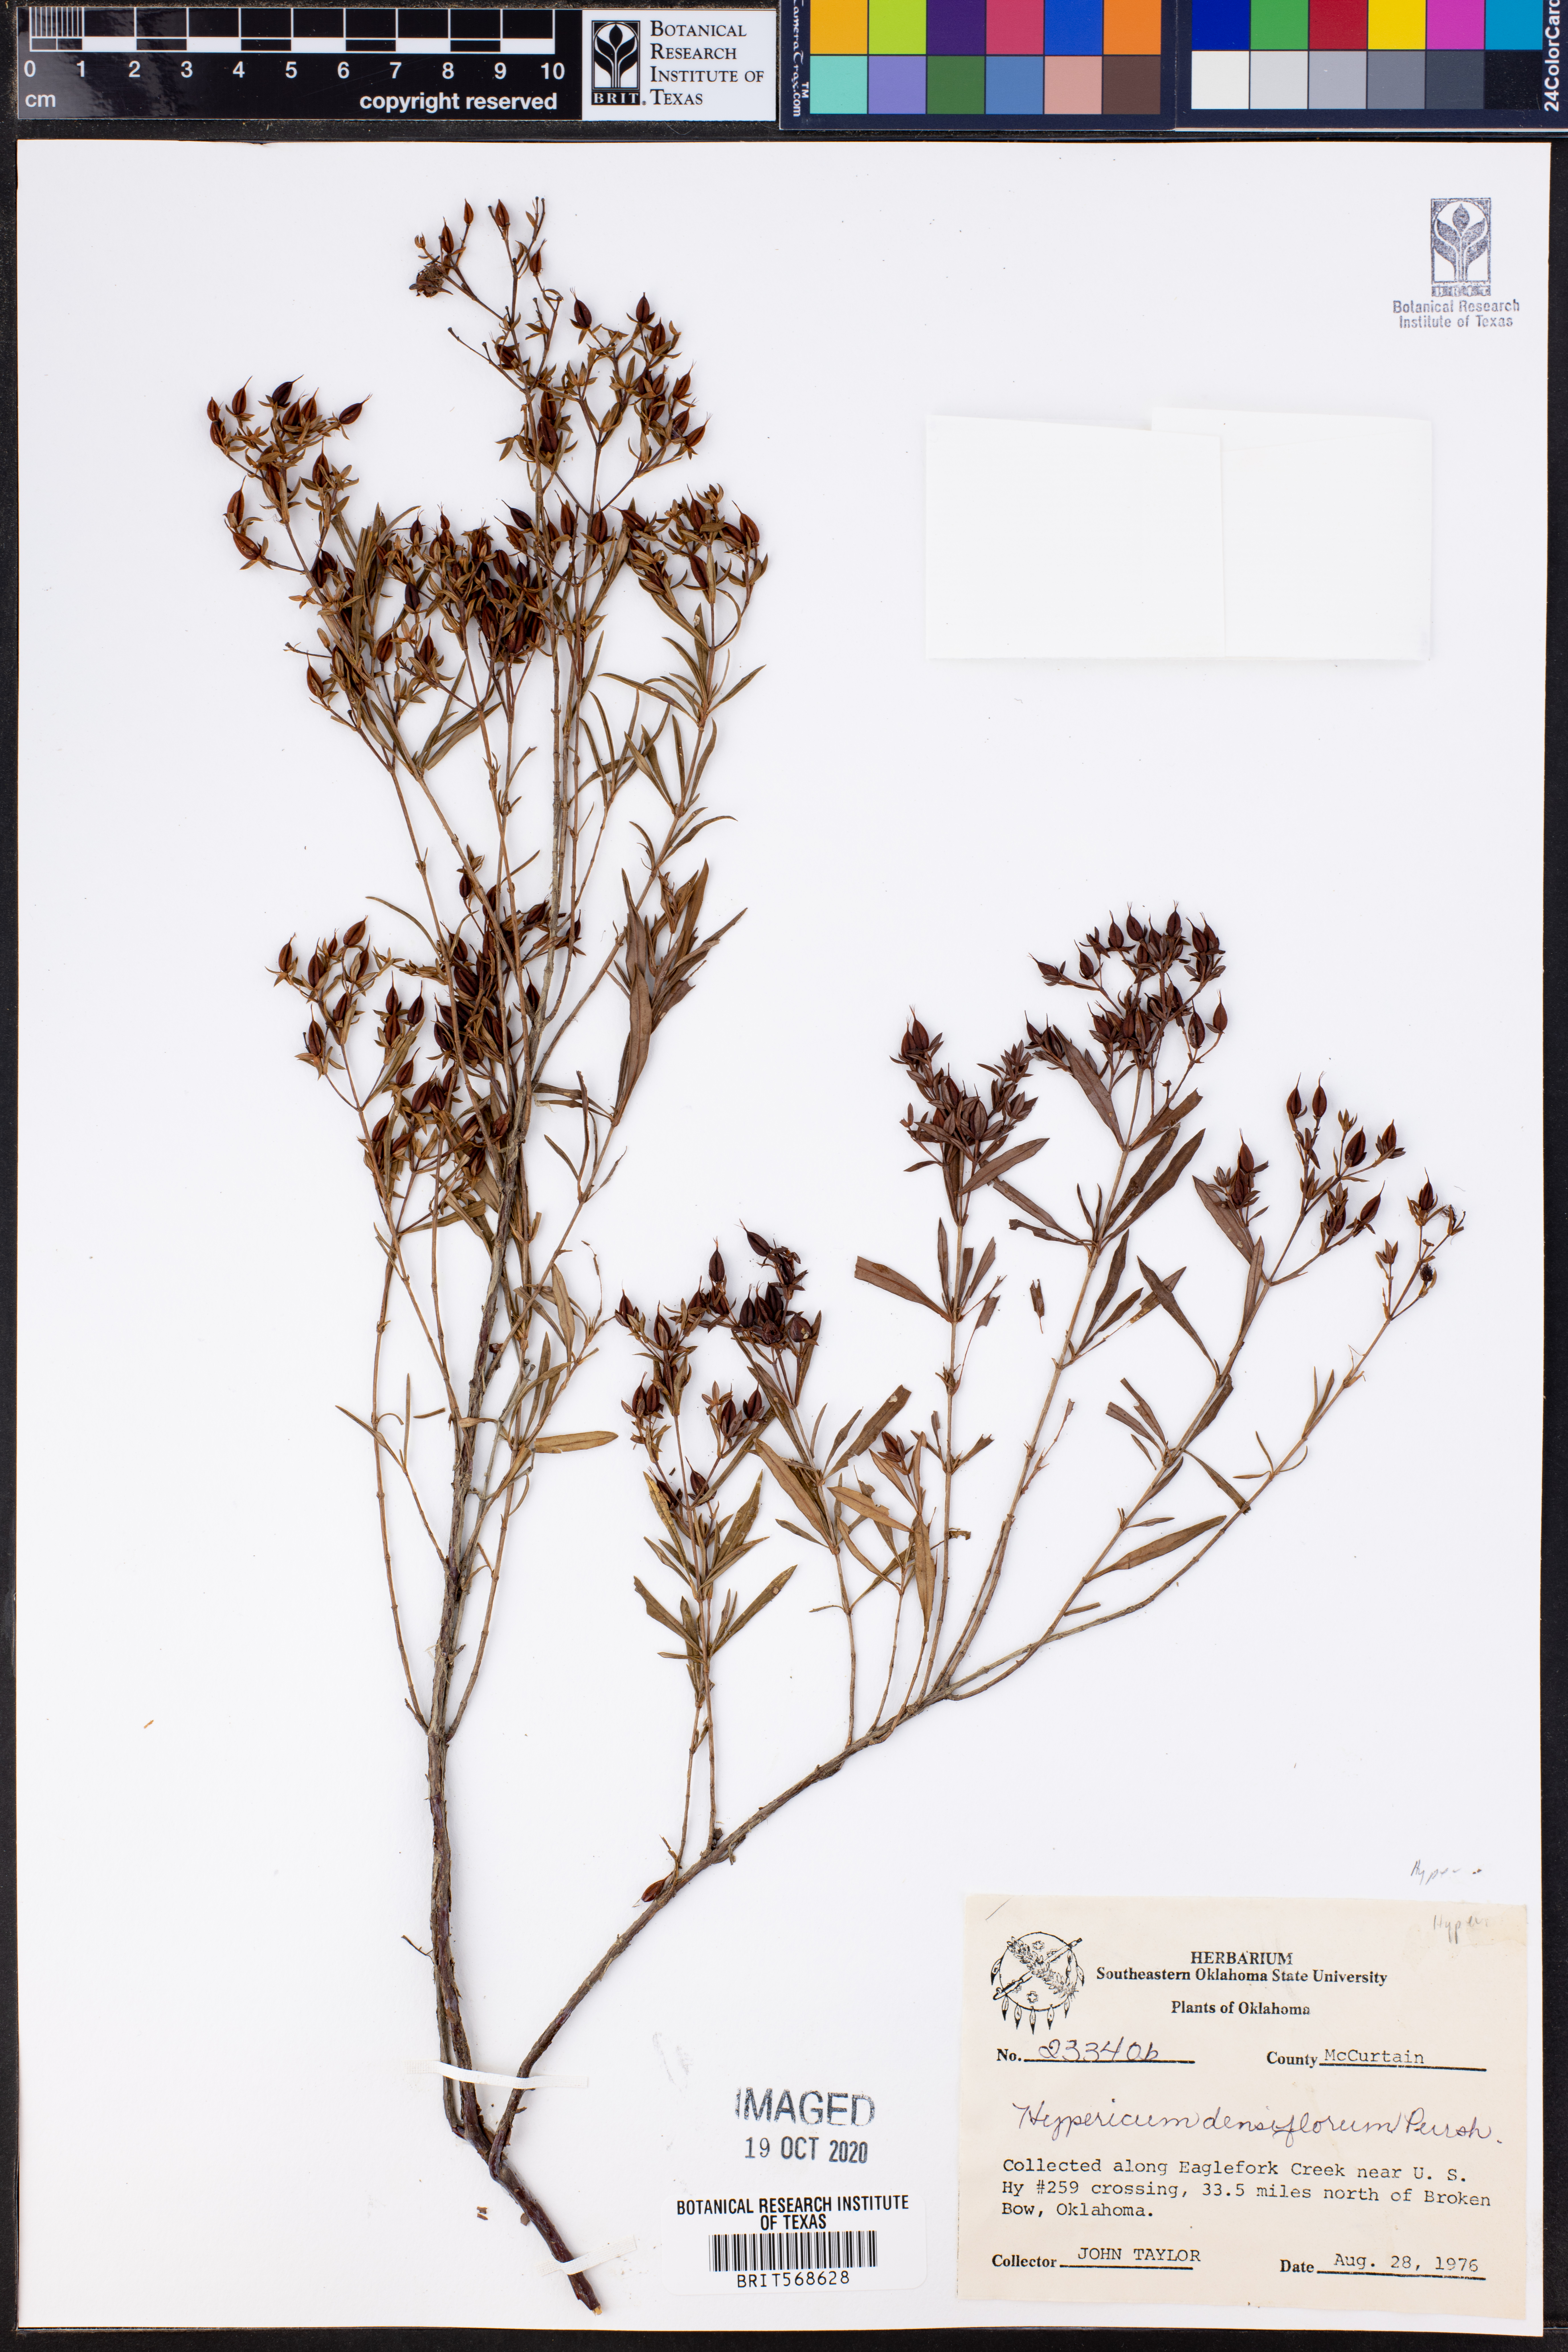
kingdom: Plantae
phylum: Tracheophyta
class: Magnoliopsida
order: Malpighiales
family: Hypericaceae
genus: Hypericum
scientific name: Hypericum densiflorum
